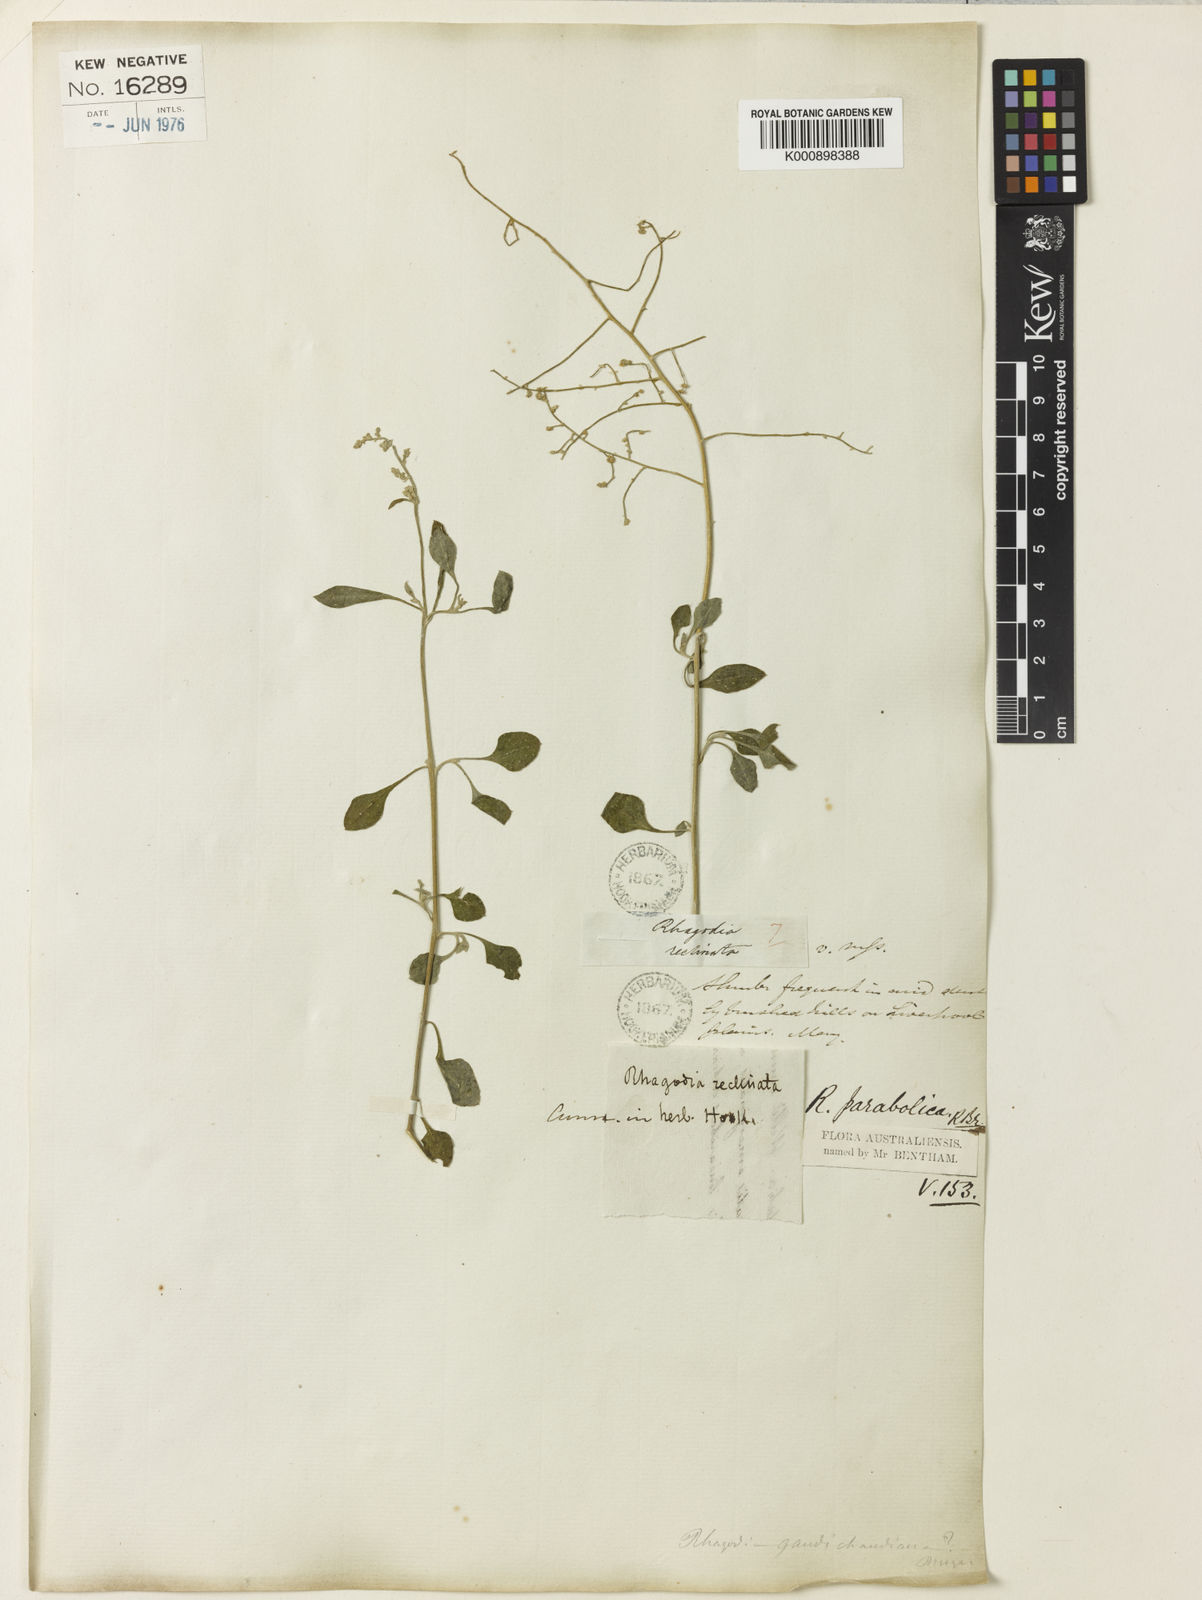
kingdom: Plantae
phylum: Tracheophyta
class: Magnoliopsida
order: Caryophyllales
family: Amaranthaceae
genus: Chenopodium
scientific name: Chenopodium parabolicum
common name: Old-man-saltbush
